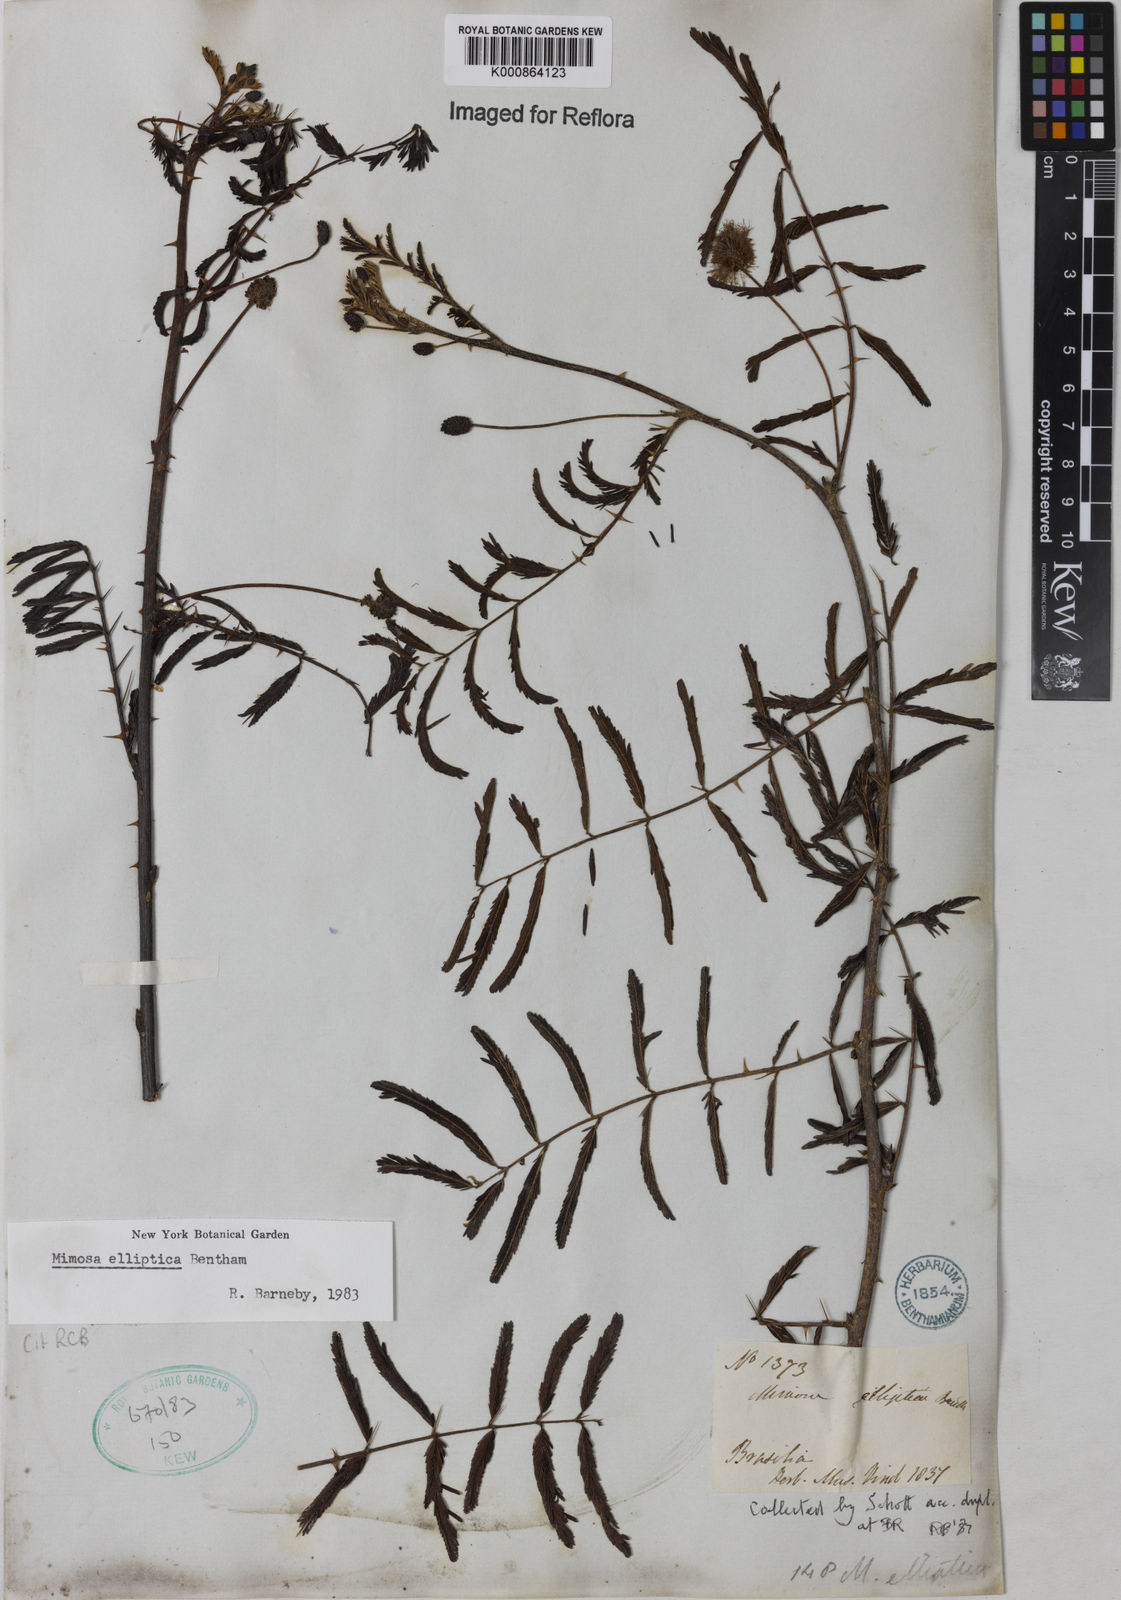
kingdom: Plantae
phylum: Tracheophyta
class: Magnoliopsida
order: Fabales
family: Fabaceae
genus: Mimosa
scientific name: Mimosa elliptica
